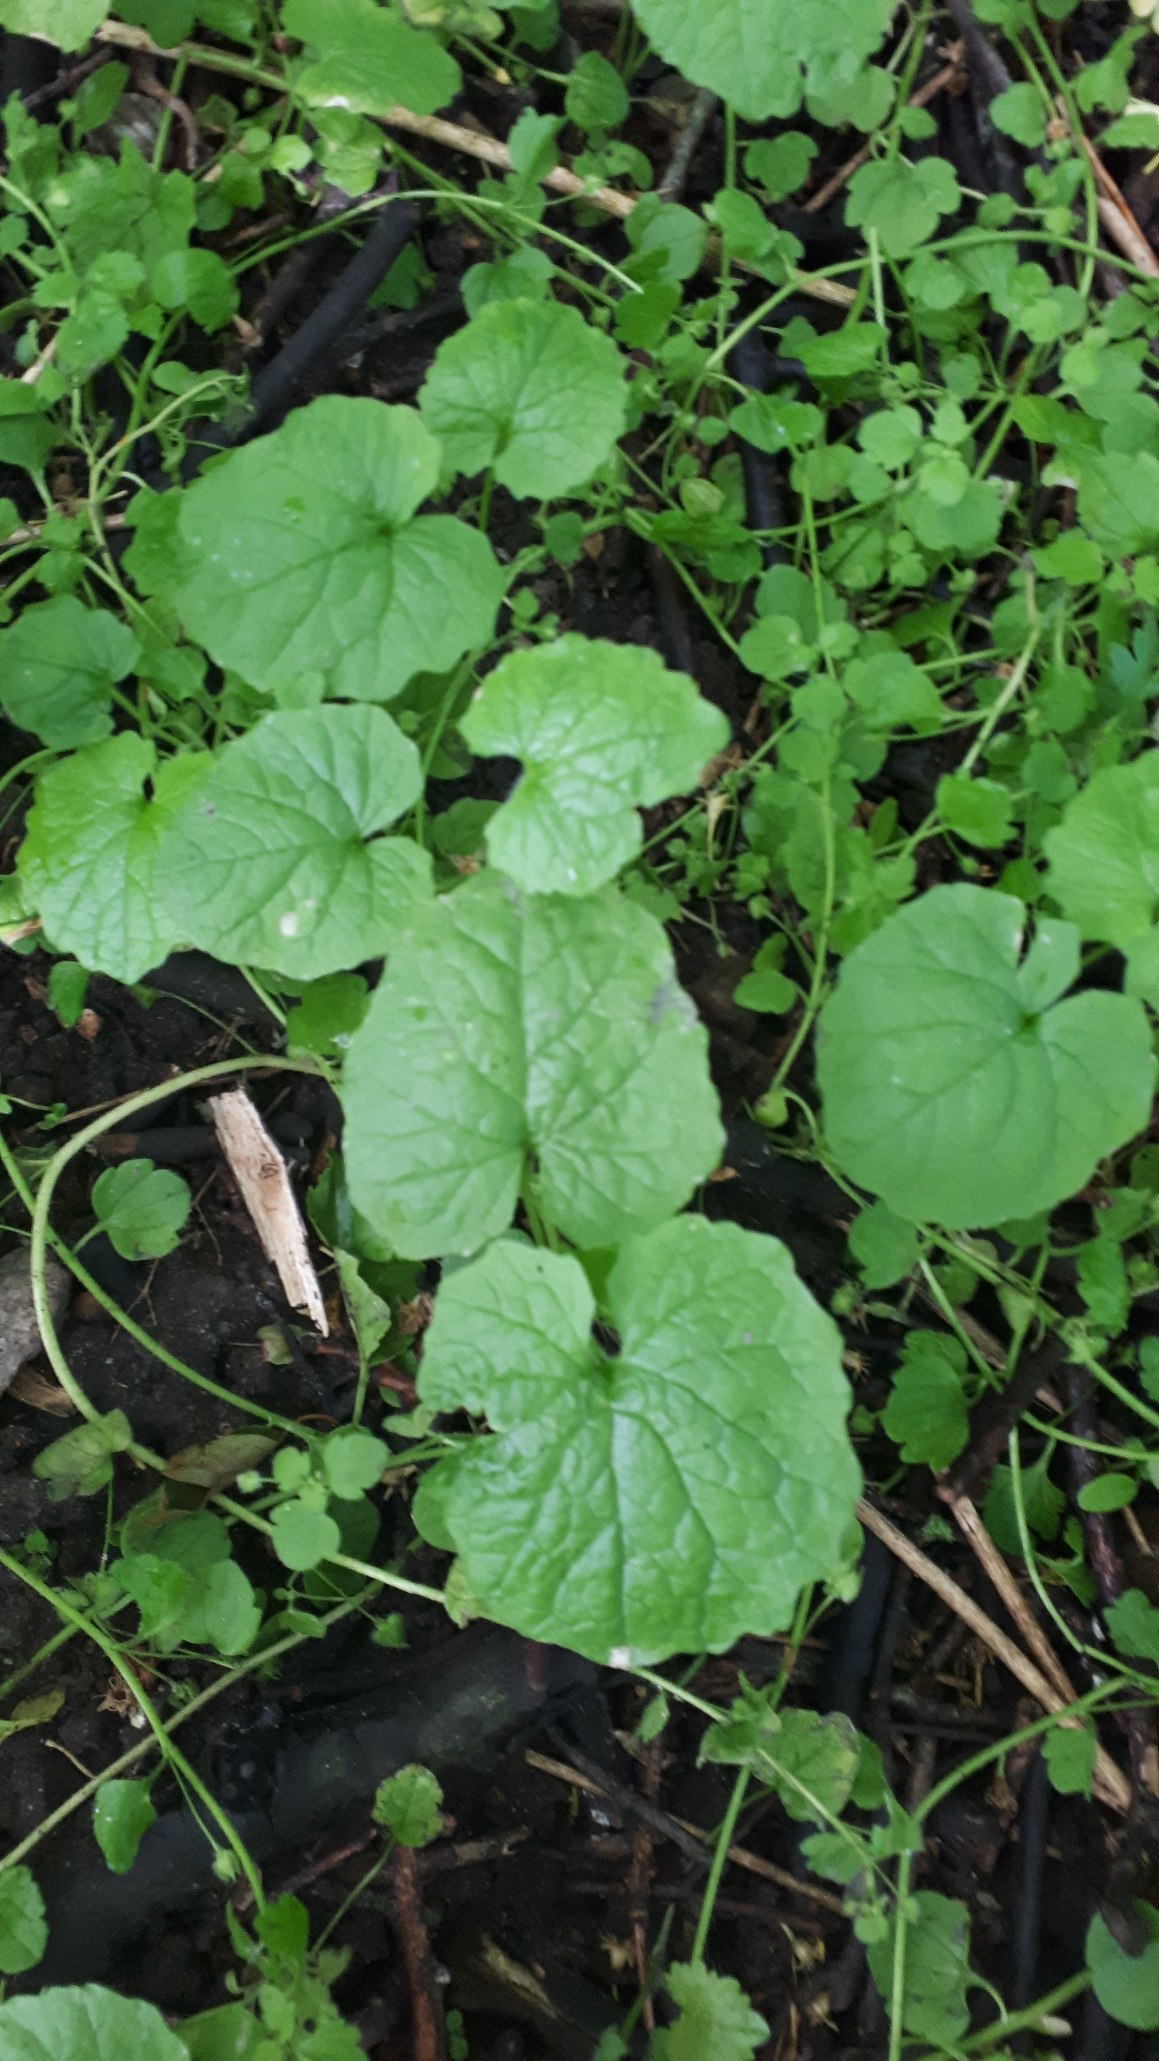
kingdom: Plantae
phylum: Tracheophyta
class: Magnoliopsida
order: Brassicales
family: Brassicaceae
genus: Alliaria
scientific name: Alliaria petiolata
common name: Løgkarse
